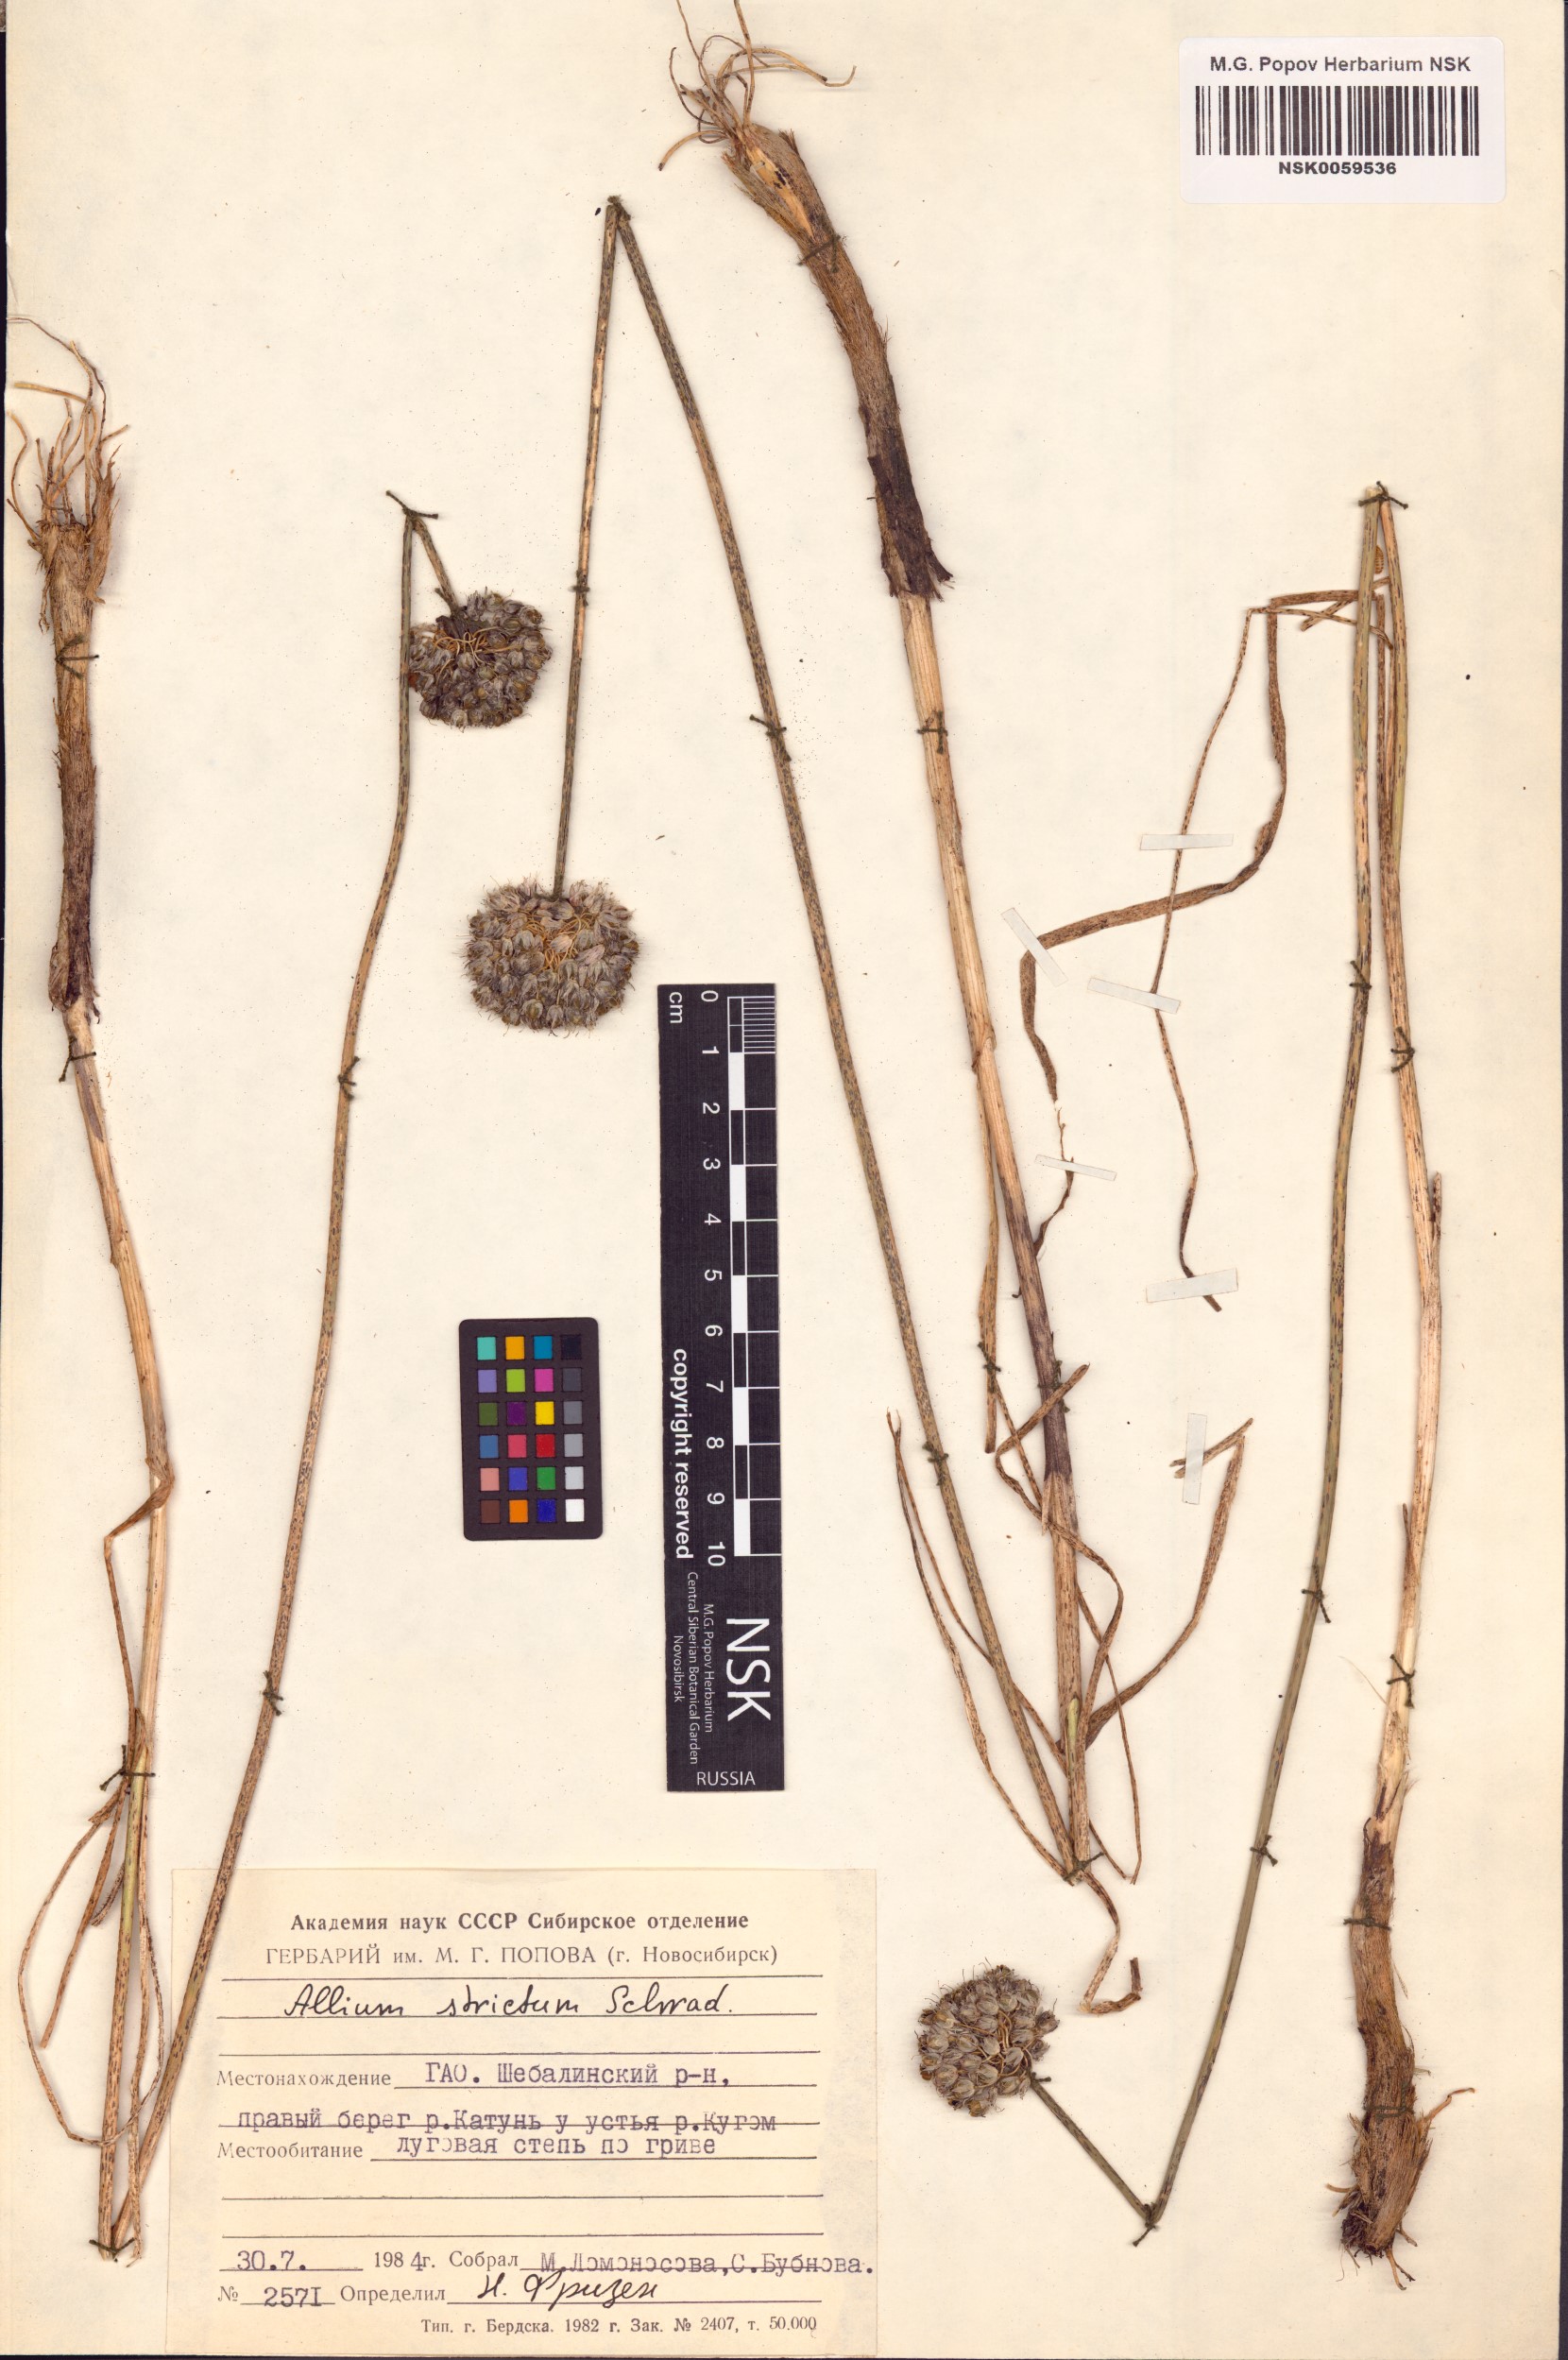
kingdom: Plantae
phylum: Tracheophyta
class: Liliopsida
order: Asparagales
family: Amaryllidaceae
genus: Allium
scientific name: Allium strictum
